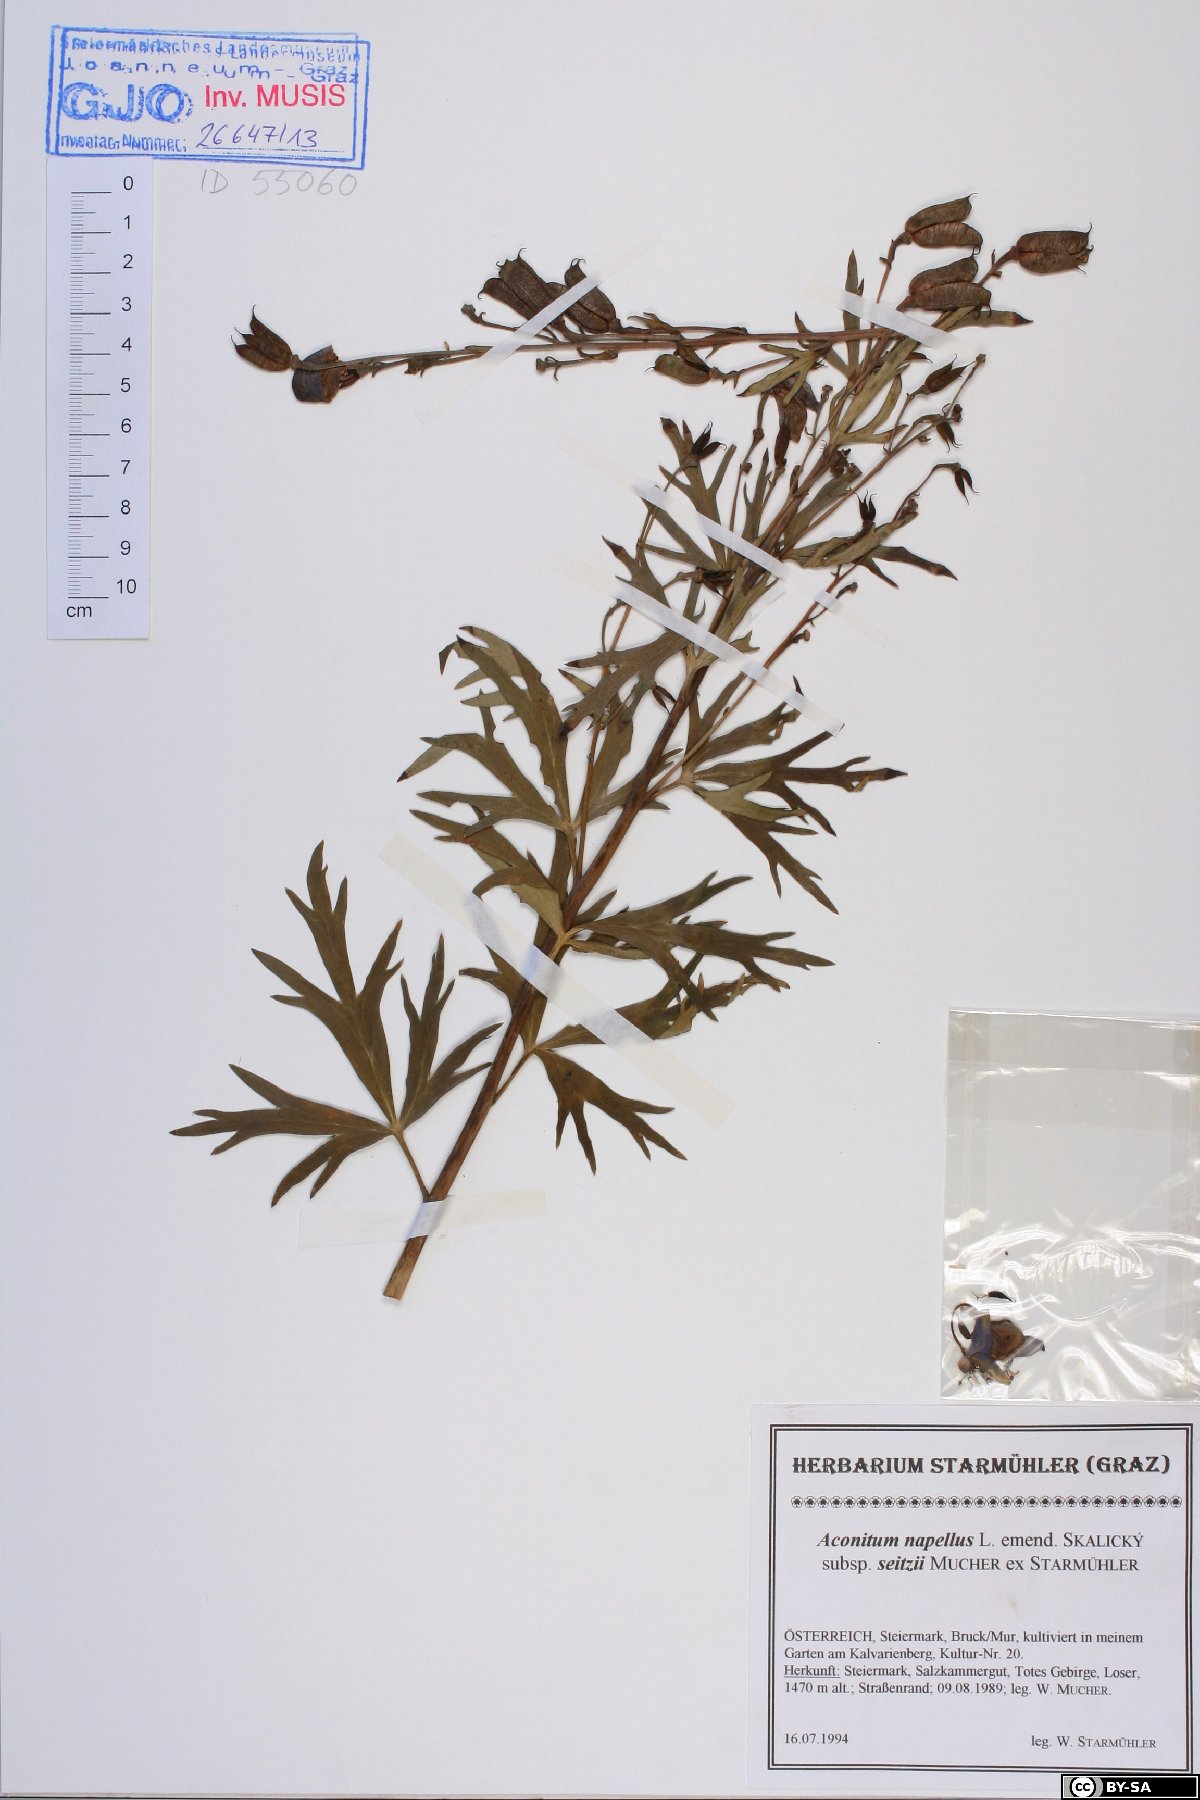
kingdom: Plantae
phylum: Tracheophyta
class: Magnoliopsida
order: Ranunculales
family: Ranunculaceae
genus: Aconitum
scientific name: Aconitum napellus
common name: Garden monkshood
